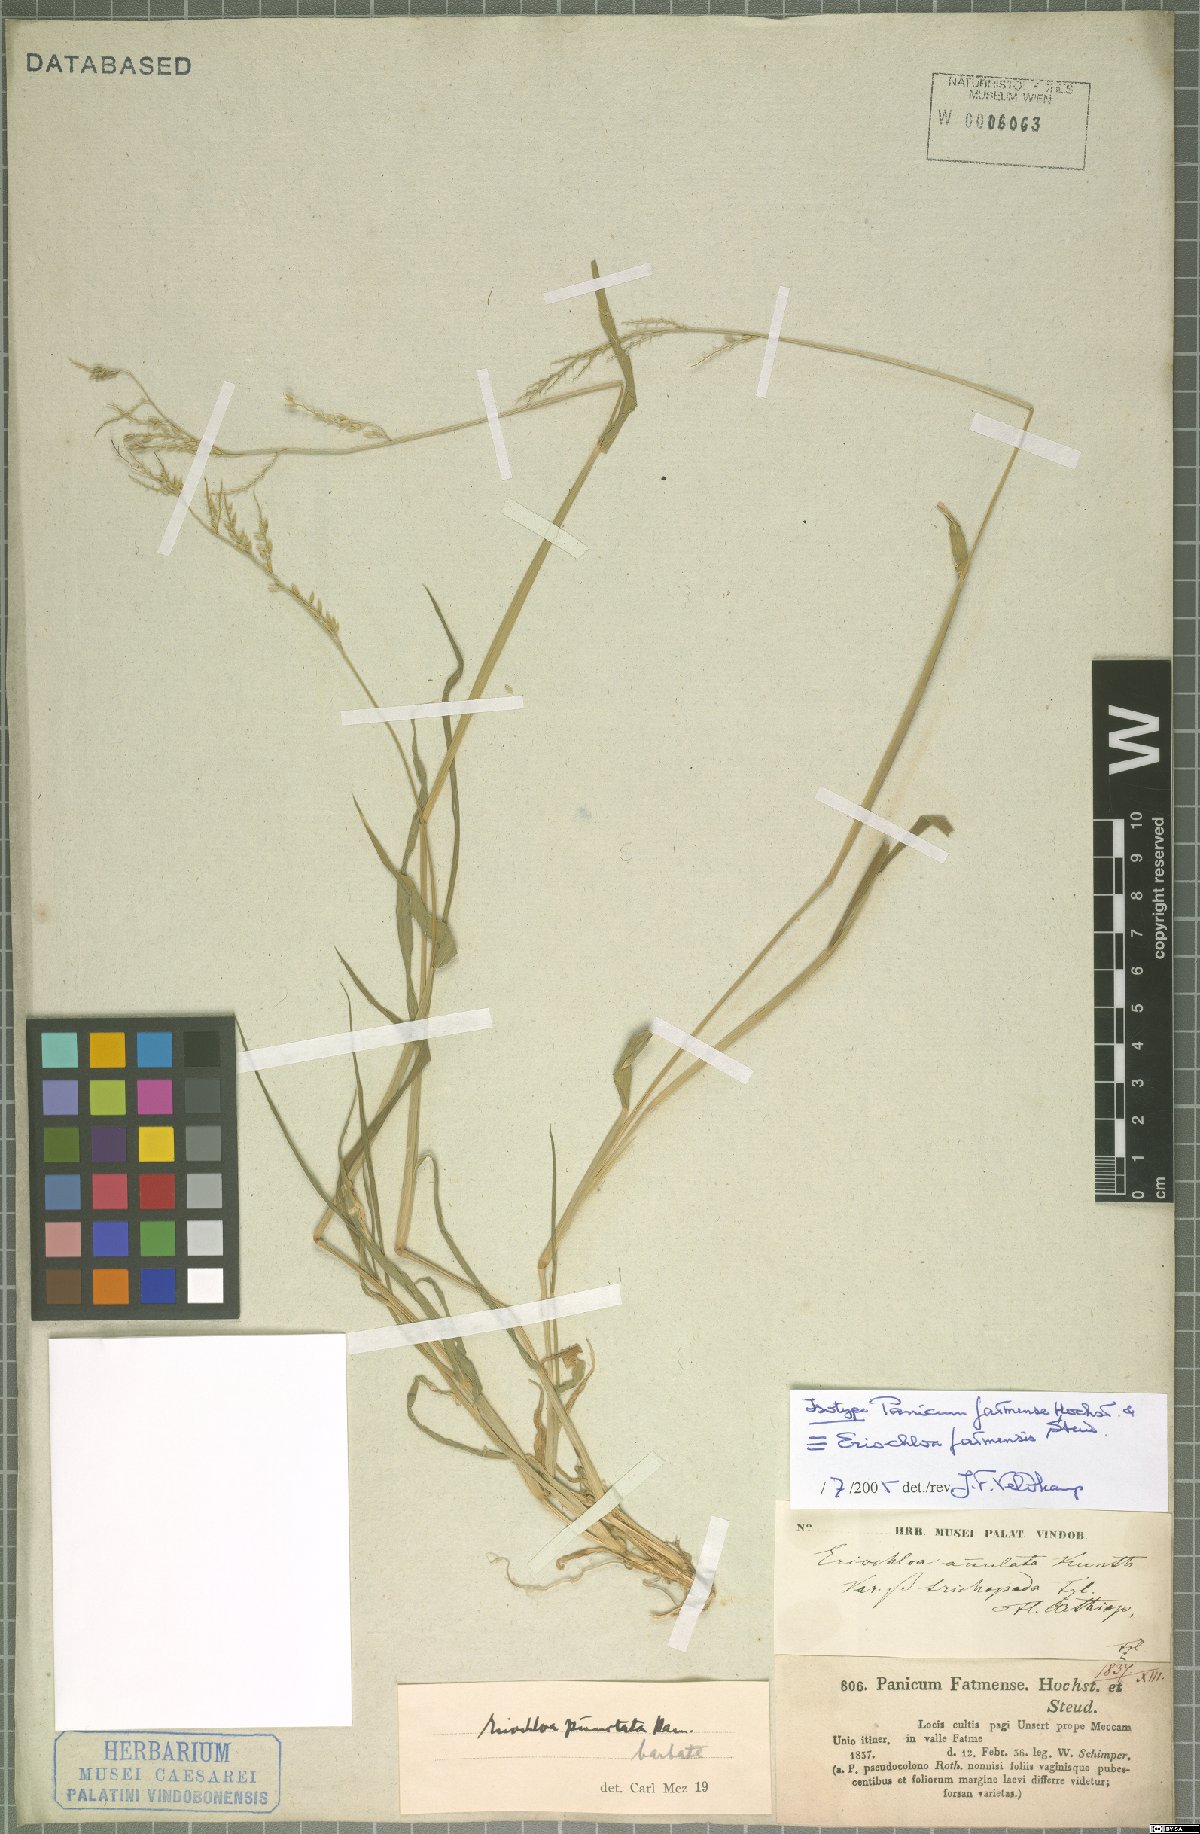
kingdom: Plantae
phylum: Tracheophyta
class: Liliopsida
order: Poales
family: Poaceae
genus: Eriochloa
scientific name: Eriochloa barbatus
